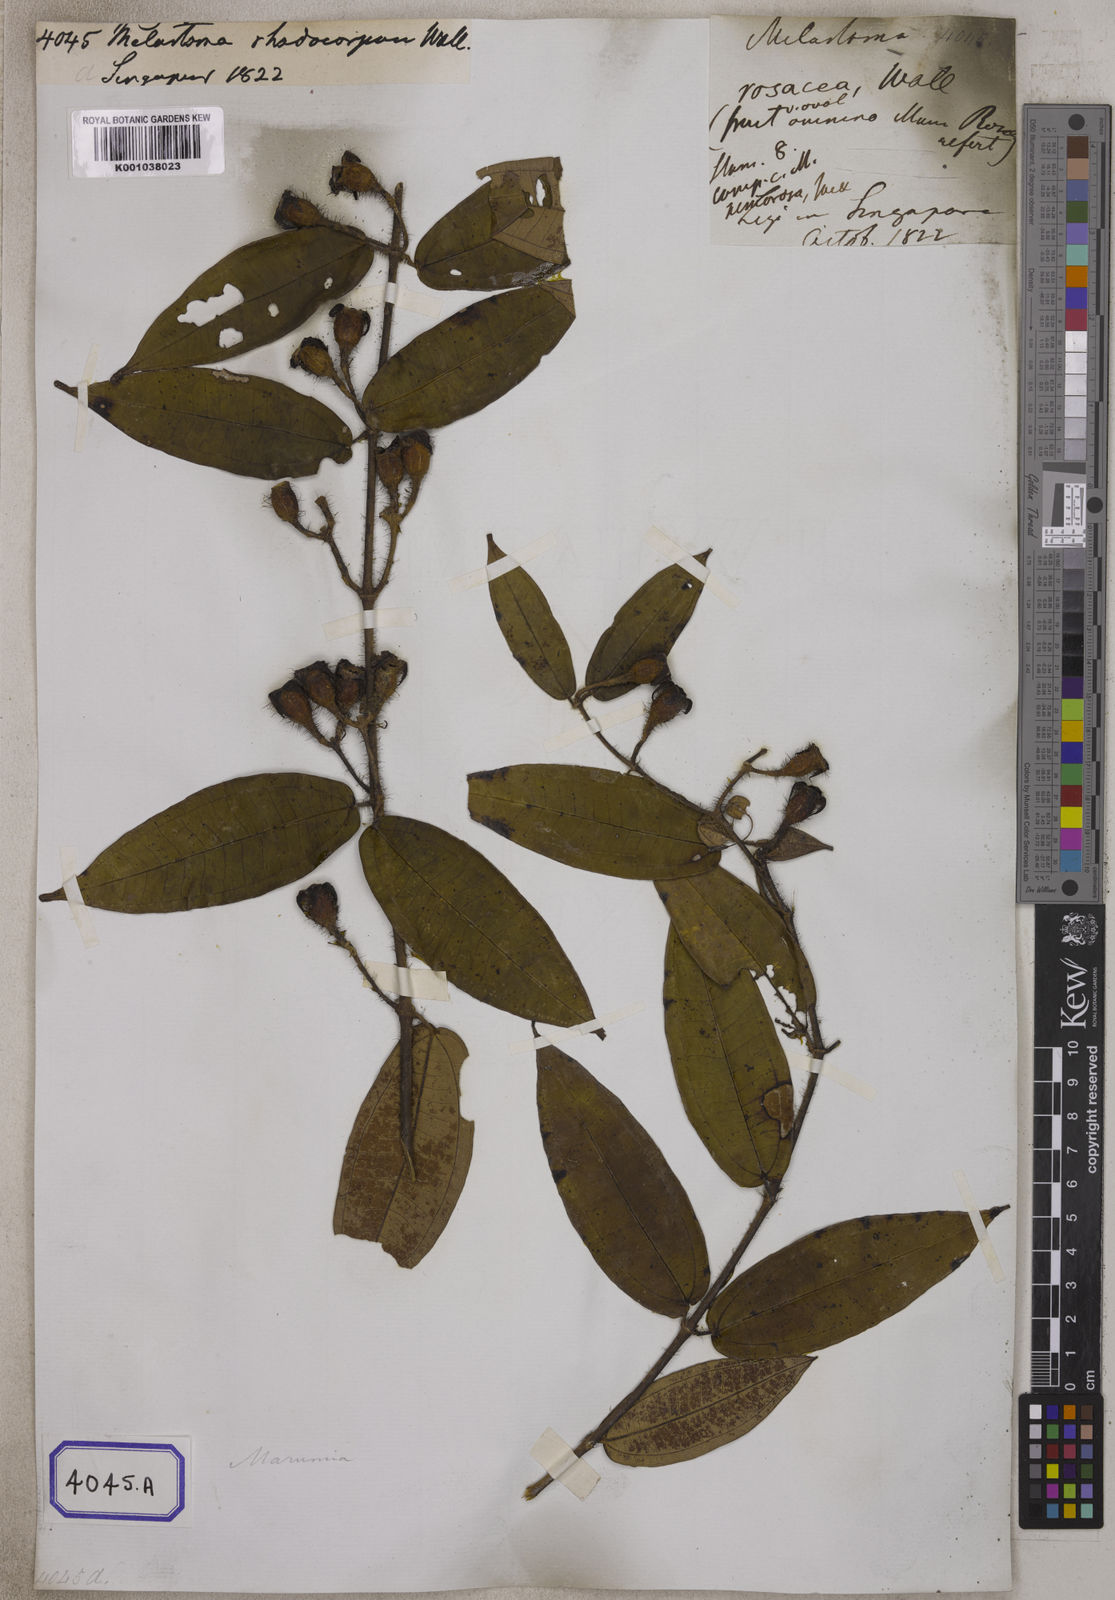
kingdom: Plantae
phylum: Tracheophyta
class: Magnoliopsida
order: Myrtales
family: Melastomataceae
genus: Osbeckia
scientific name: Osbeckia virgata
